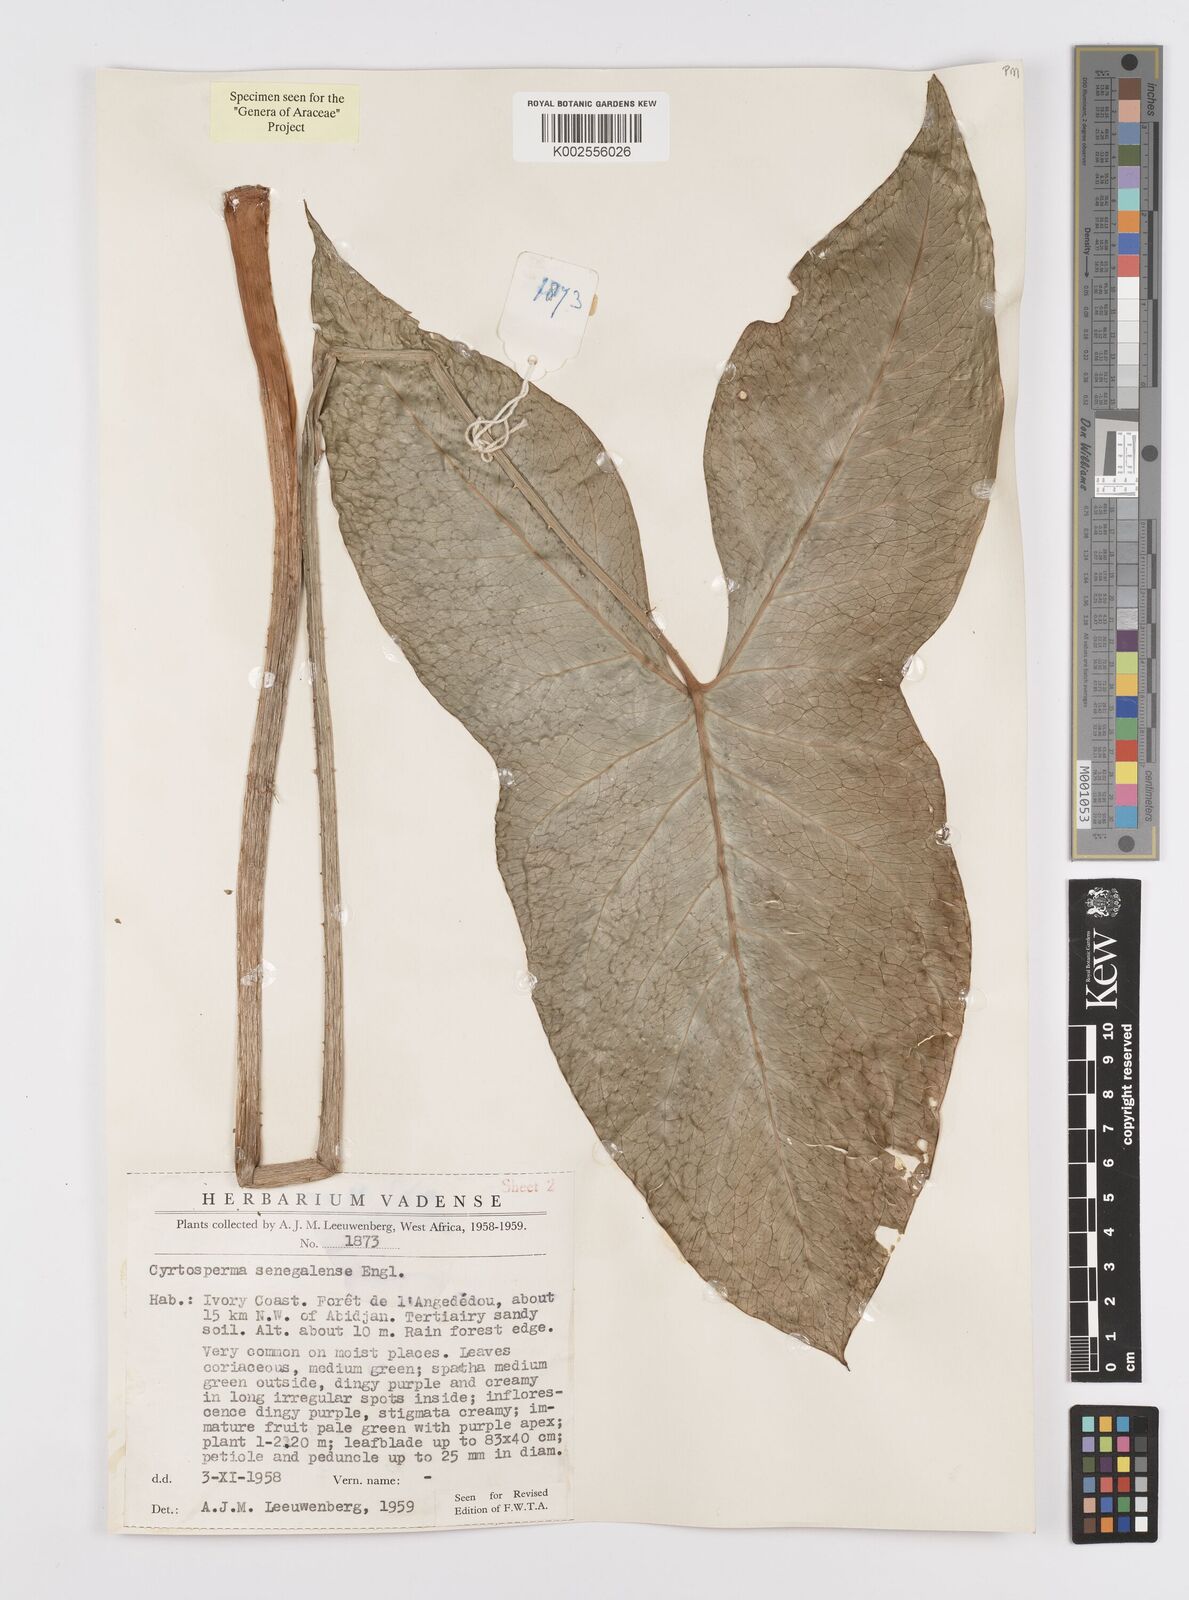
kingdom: Plantae
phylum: Tracheophyta
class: Liliopsida
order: Alismatales
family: Araceae
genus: Lasimorpha
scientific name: Lasimorpha senegalensis
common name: Swamp arum
